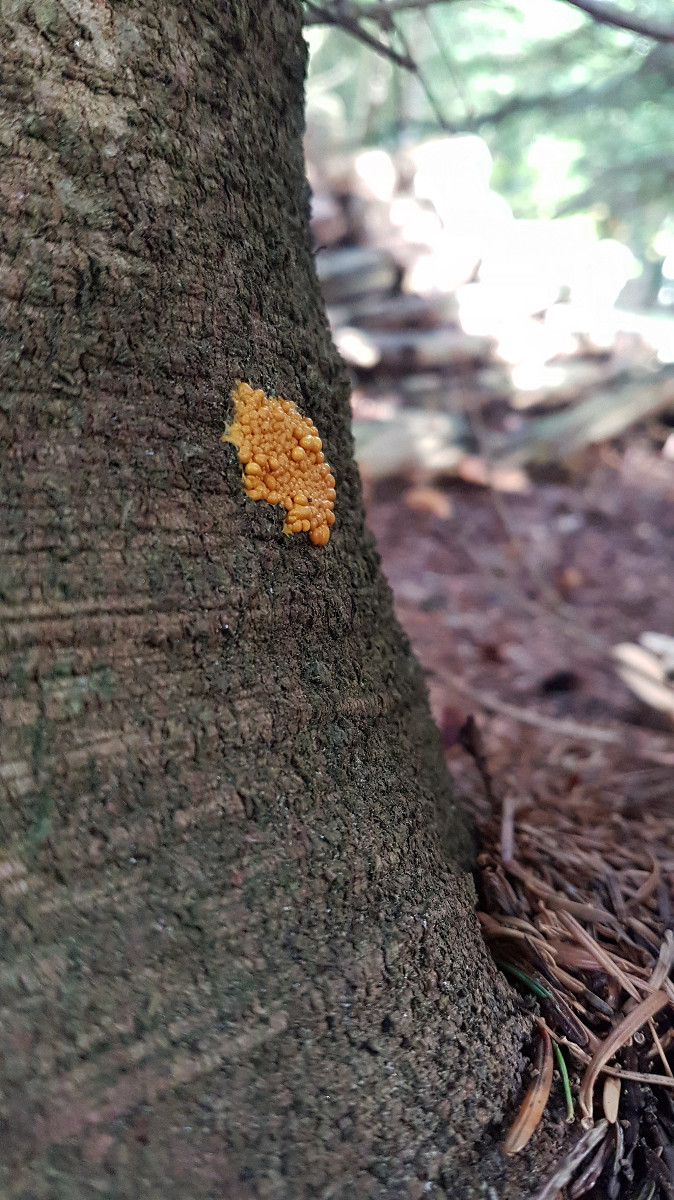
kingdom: Protozoa
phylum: Mycetozoa
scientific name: Mycetozoa
